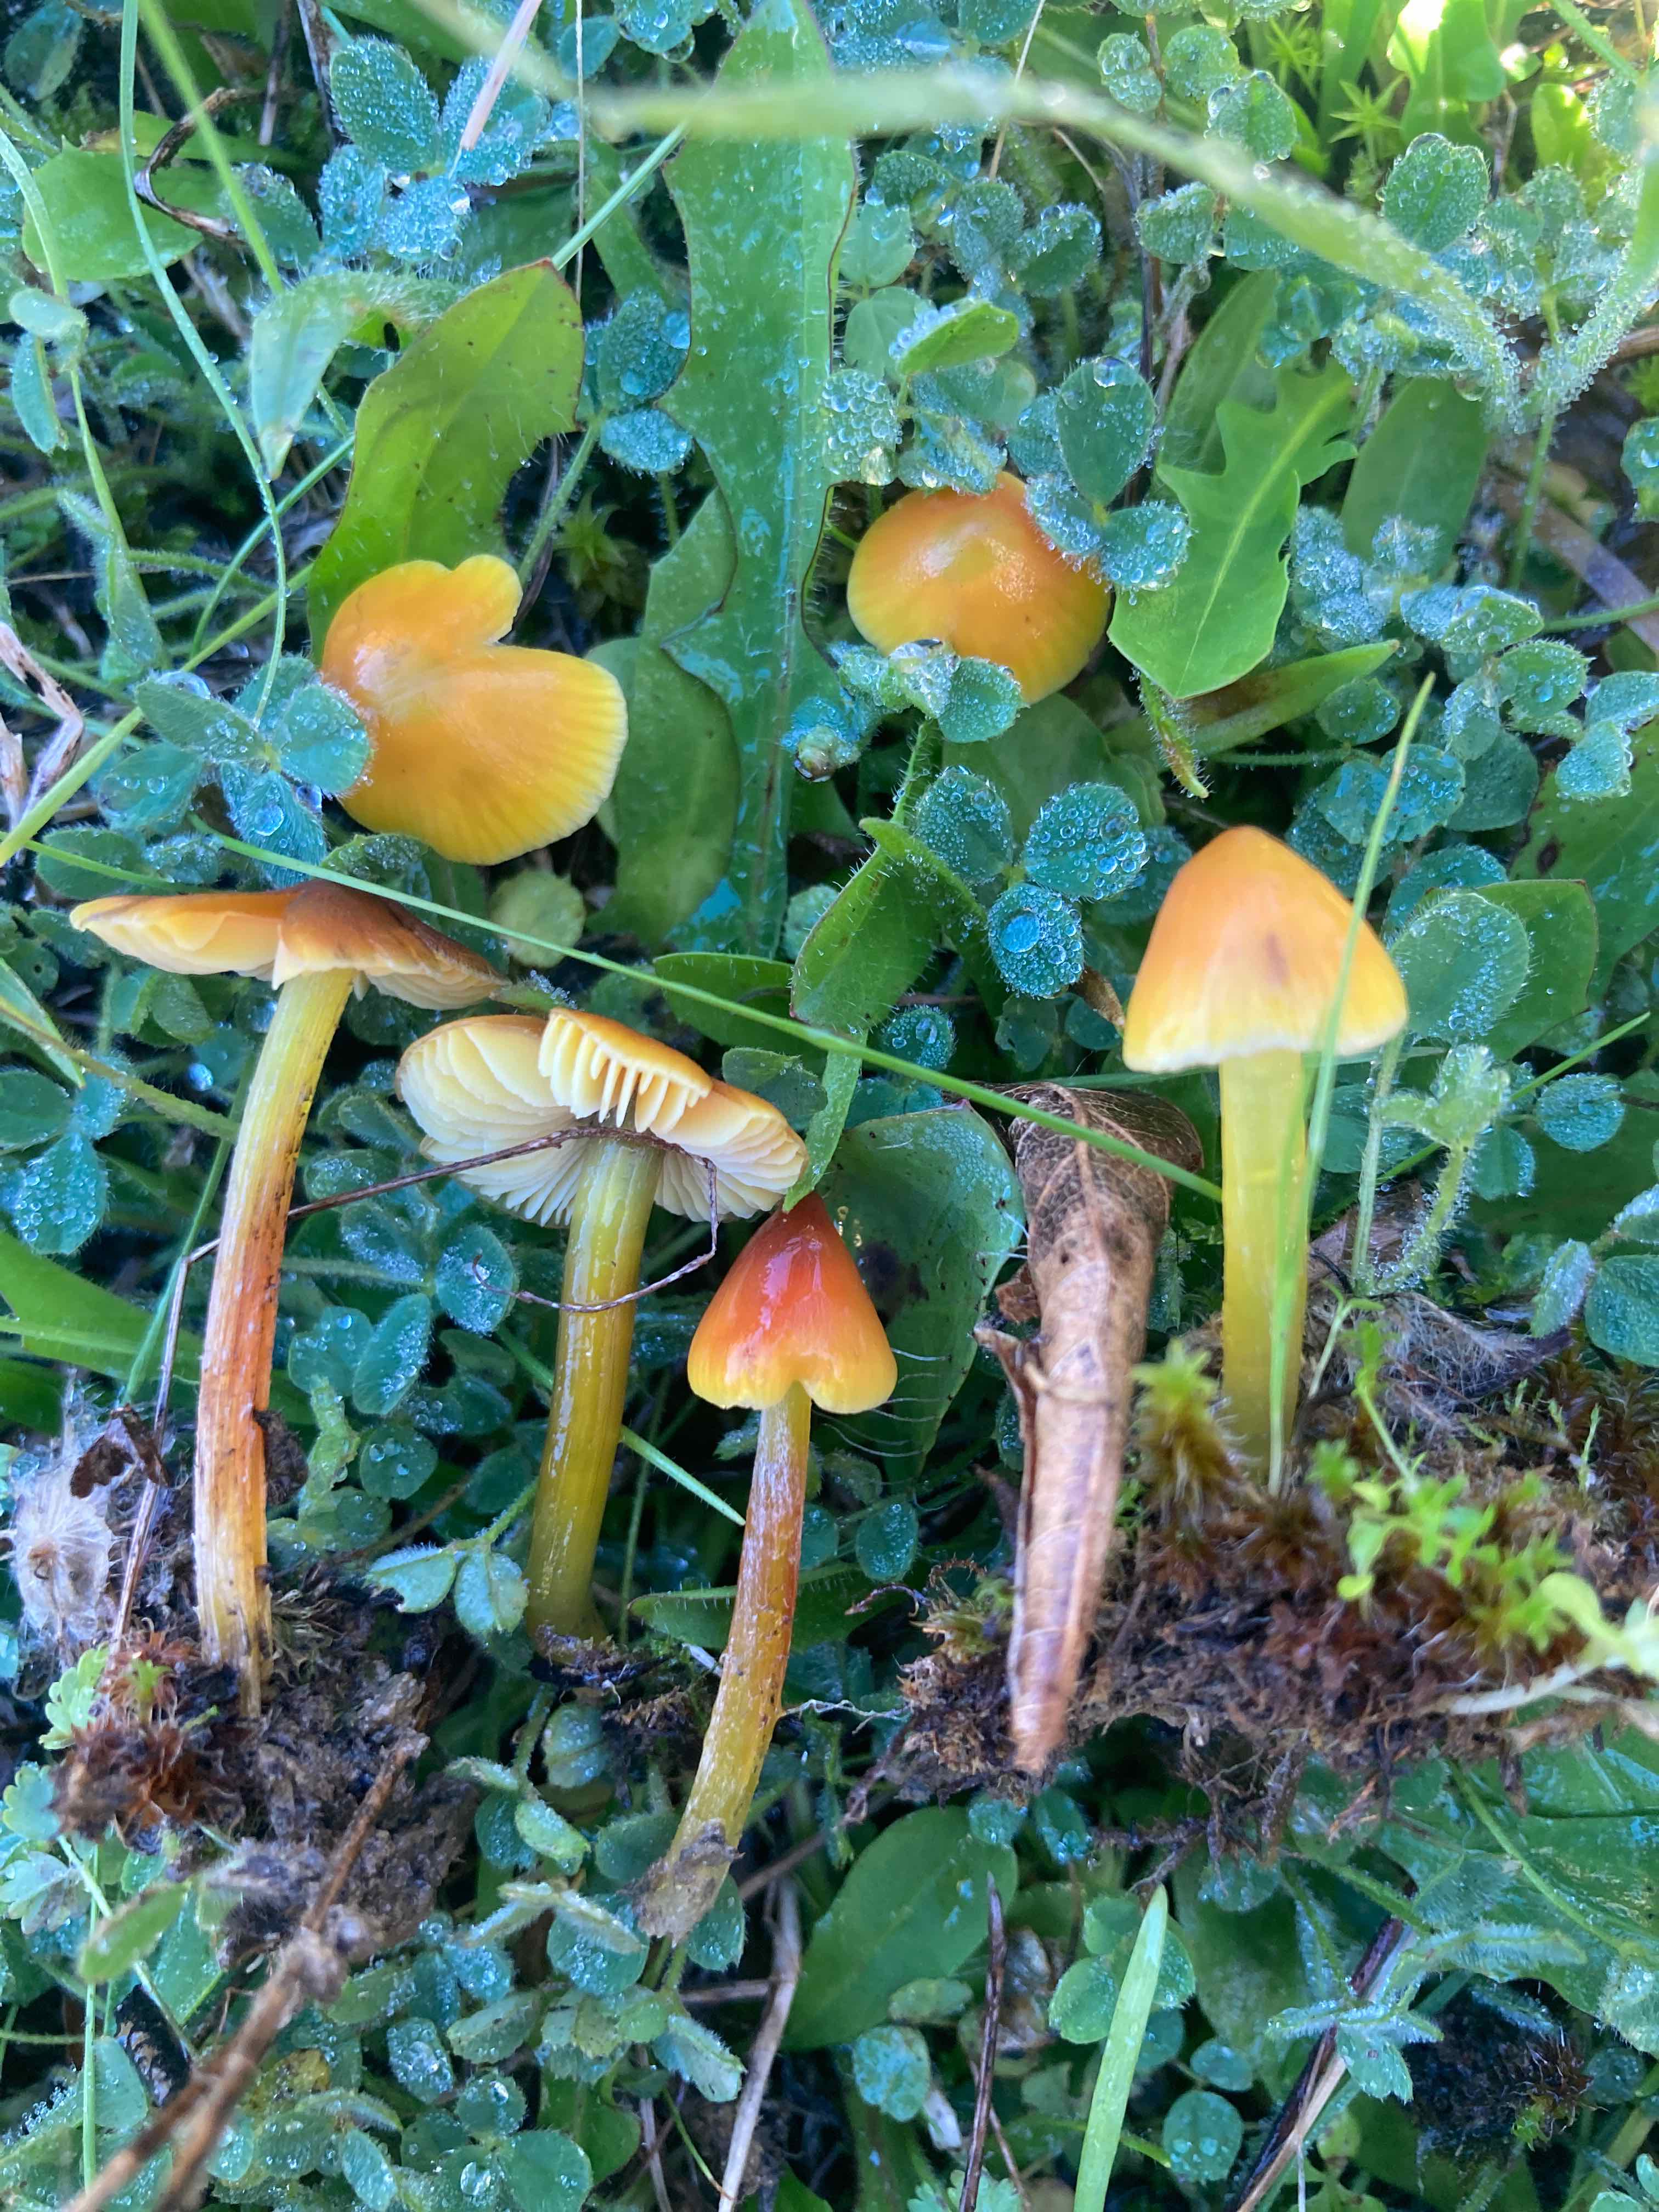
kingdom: Fungi
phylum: Basidiomycota
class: Agaricomycetes
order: Agaricales
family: Hygrophoraceae
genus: Hygrocybe
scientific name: Hygrocybe conica
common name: kegle-vokshat
